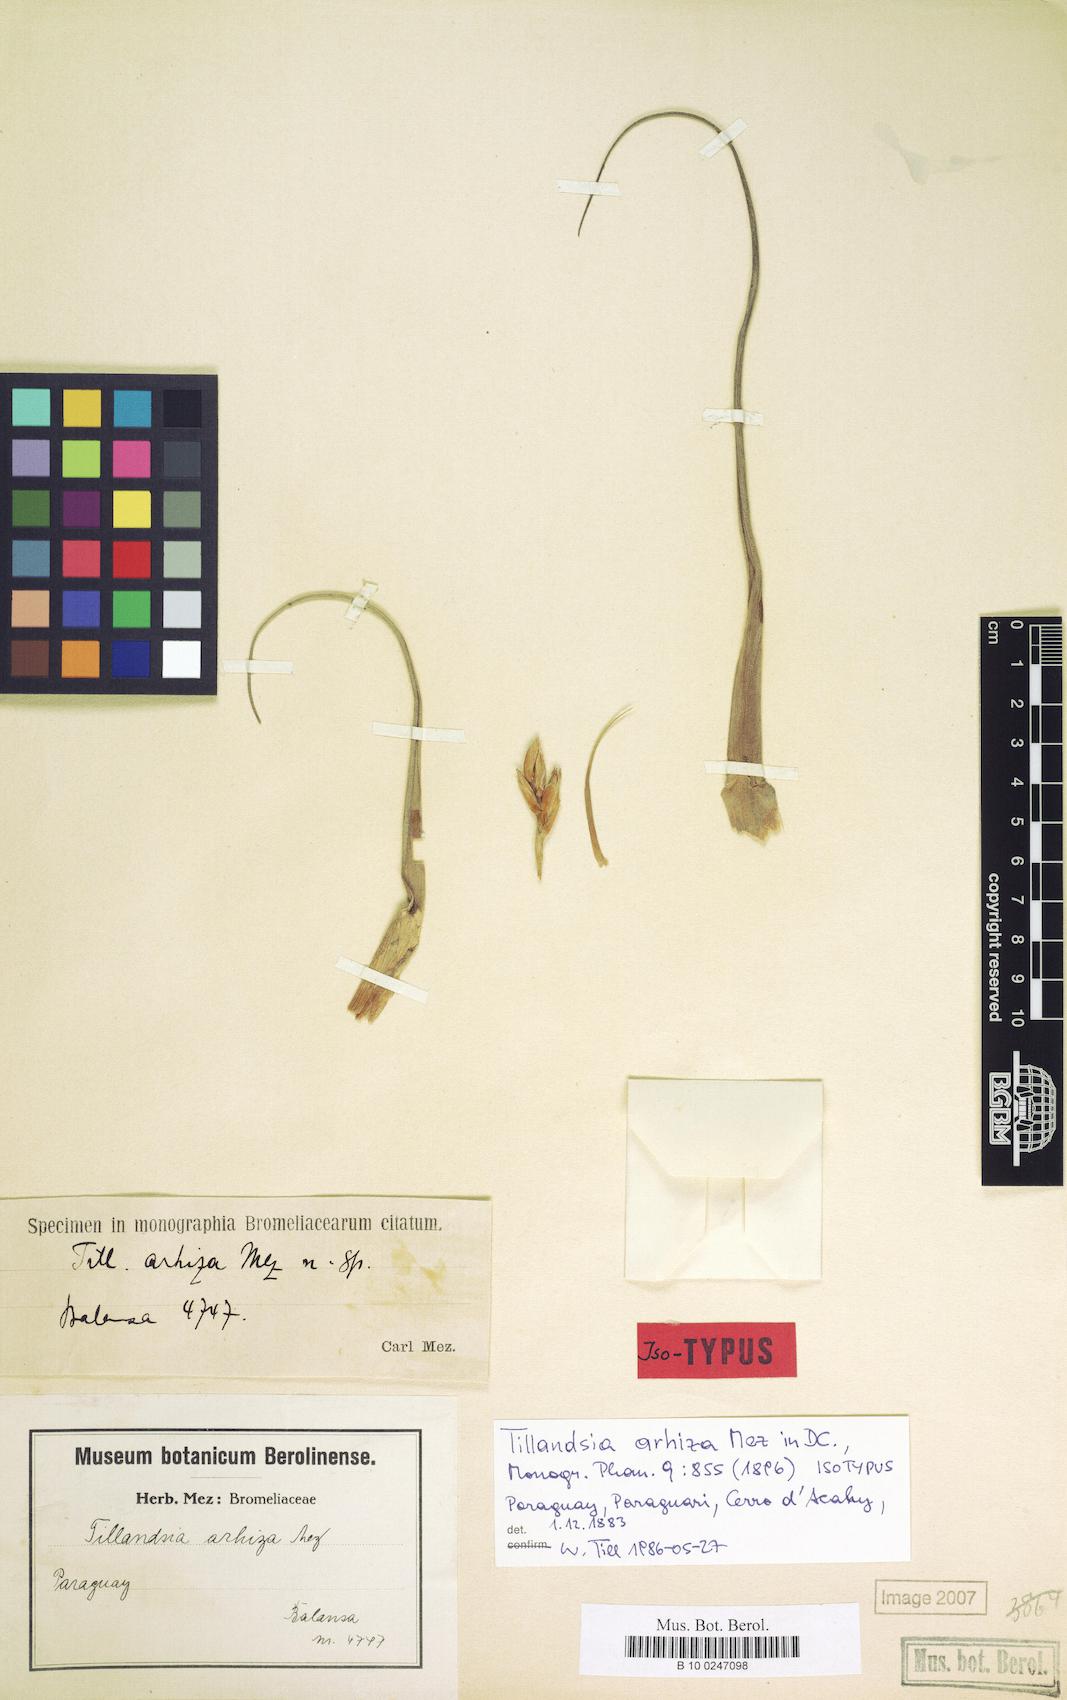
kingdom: Plantae
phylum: Tracheophyta
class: Liliopsida
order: Poales
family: Bromeliaceae
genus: Tillandsia
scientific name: Tillandsia arhiza
